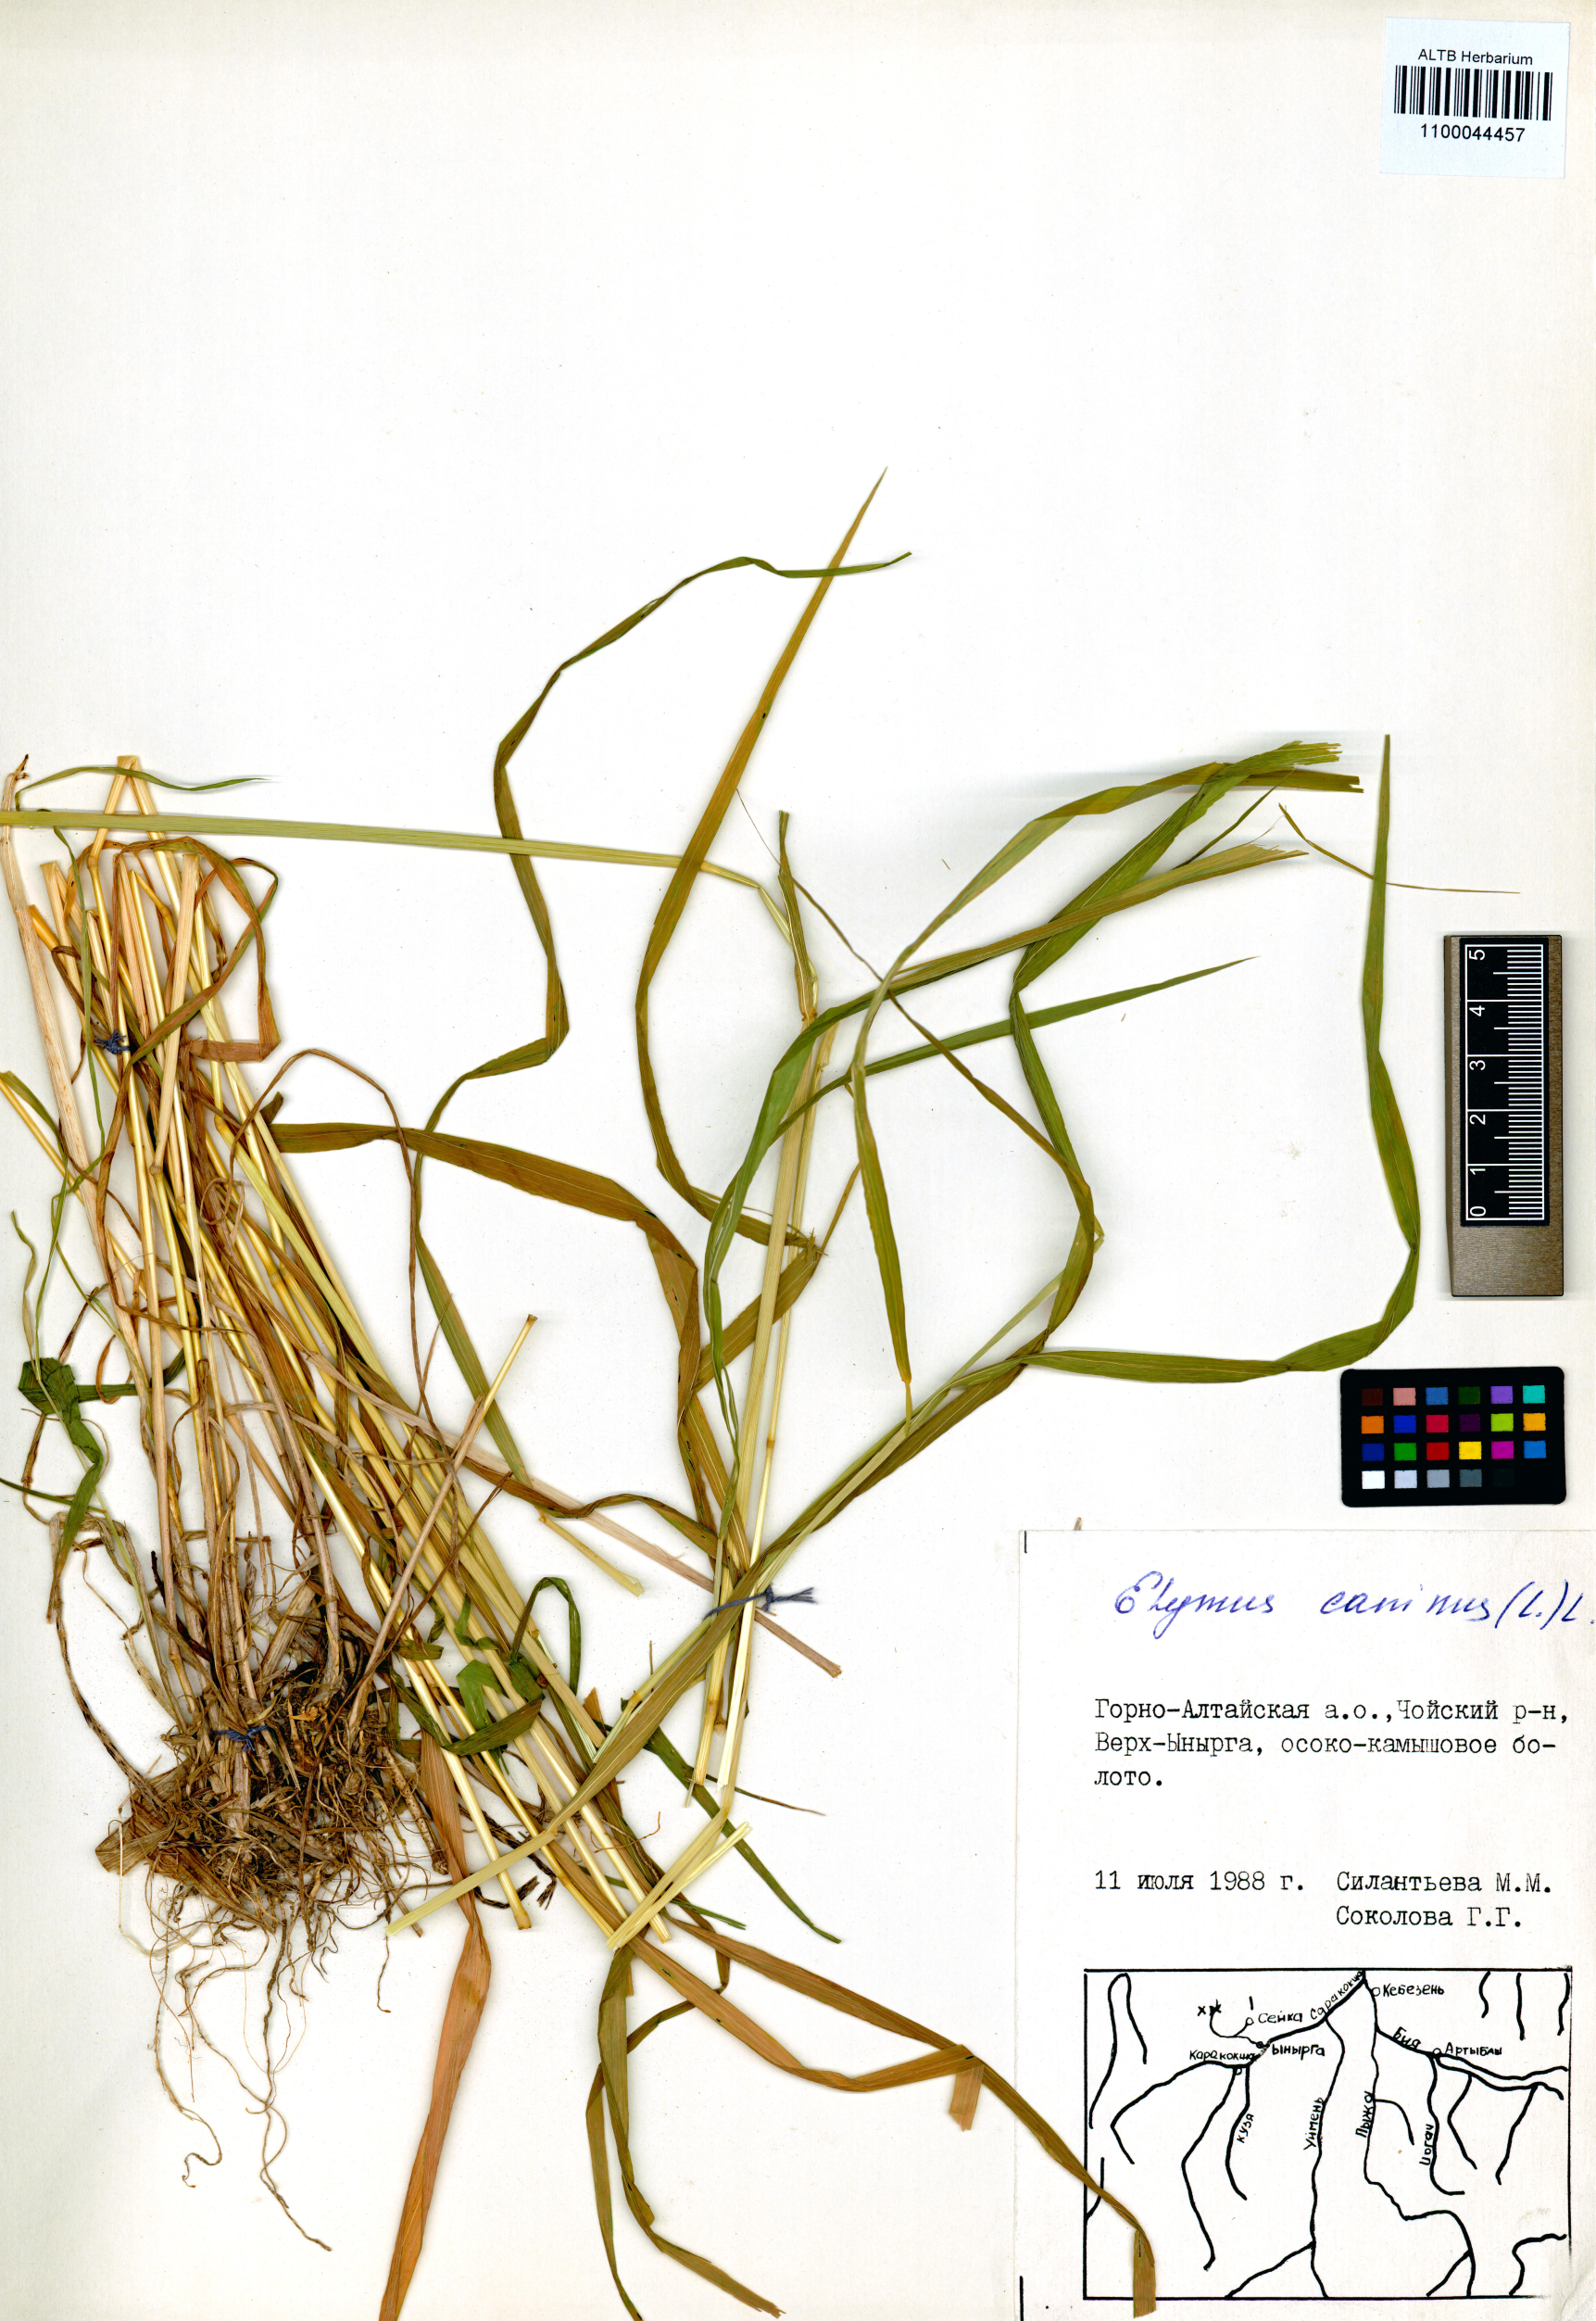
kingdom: Plantae
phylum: Tracheophyta
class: Liliopsida
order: Poales
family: Poaceae
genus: Elymus
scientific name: Elymus caninus
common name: Bearded couch
